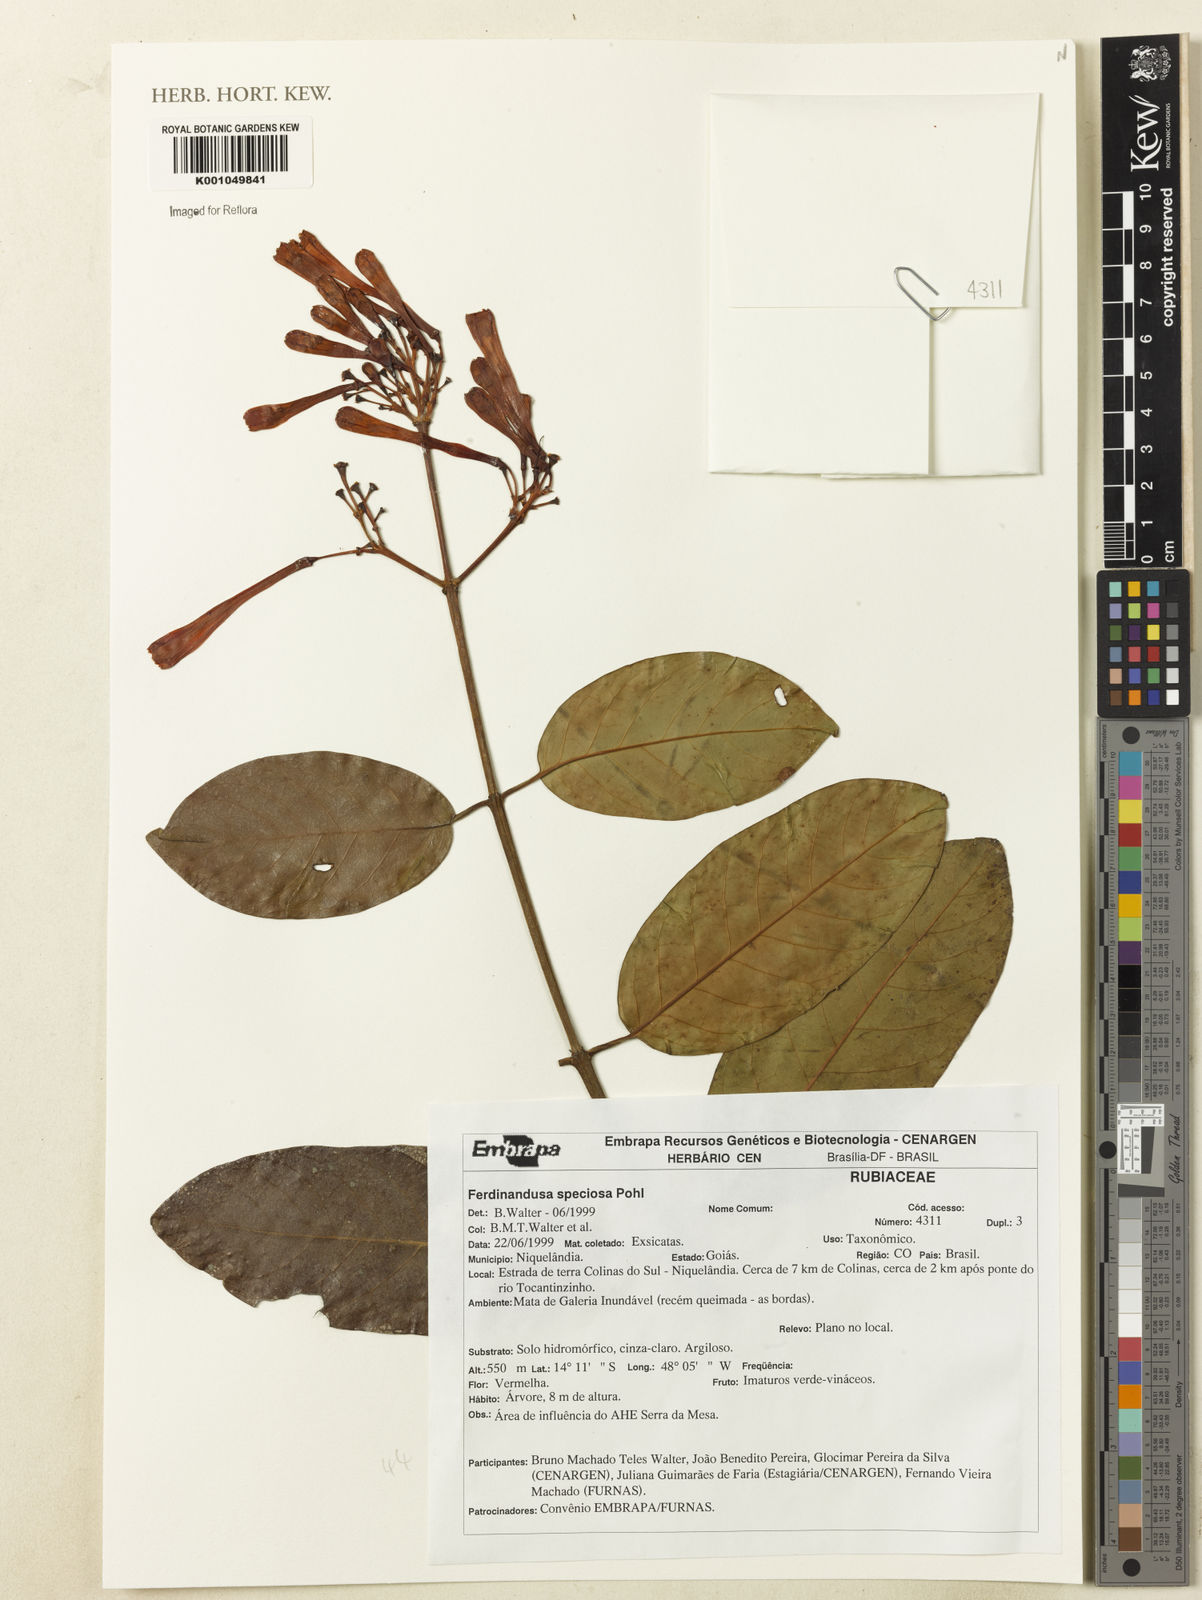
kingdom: Plantae
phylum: Tracheophyta
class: Magnoliopsida
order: Gentianales
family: Rubiaceae
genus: Ferdinandusa
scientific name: Ferdinandusa speciosa
